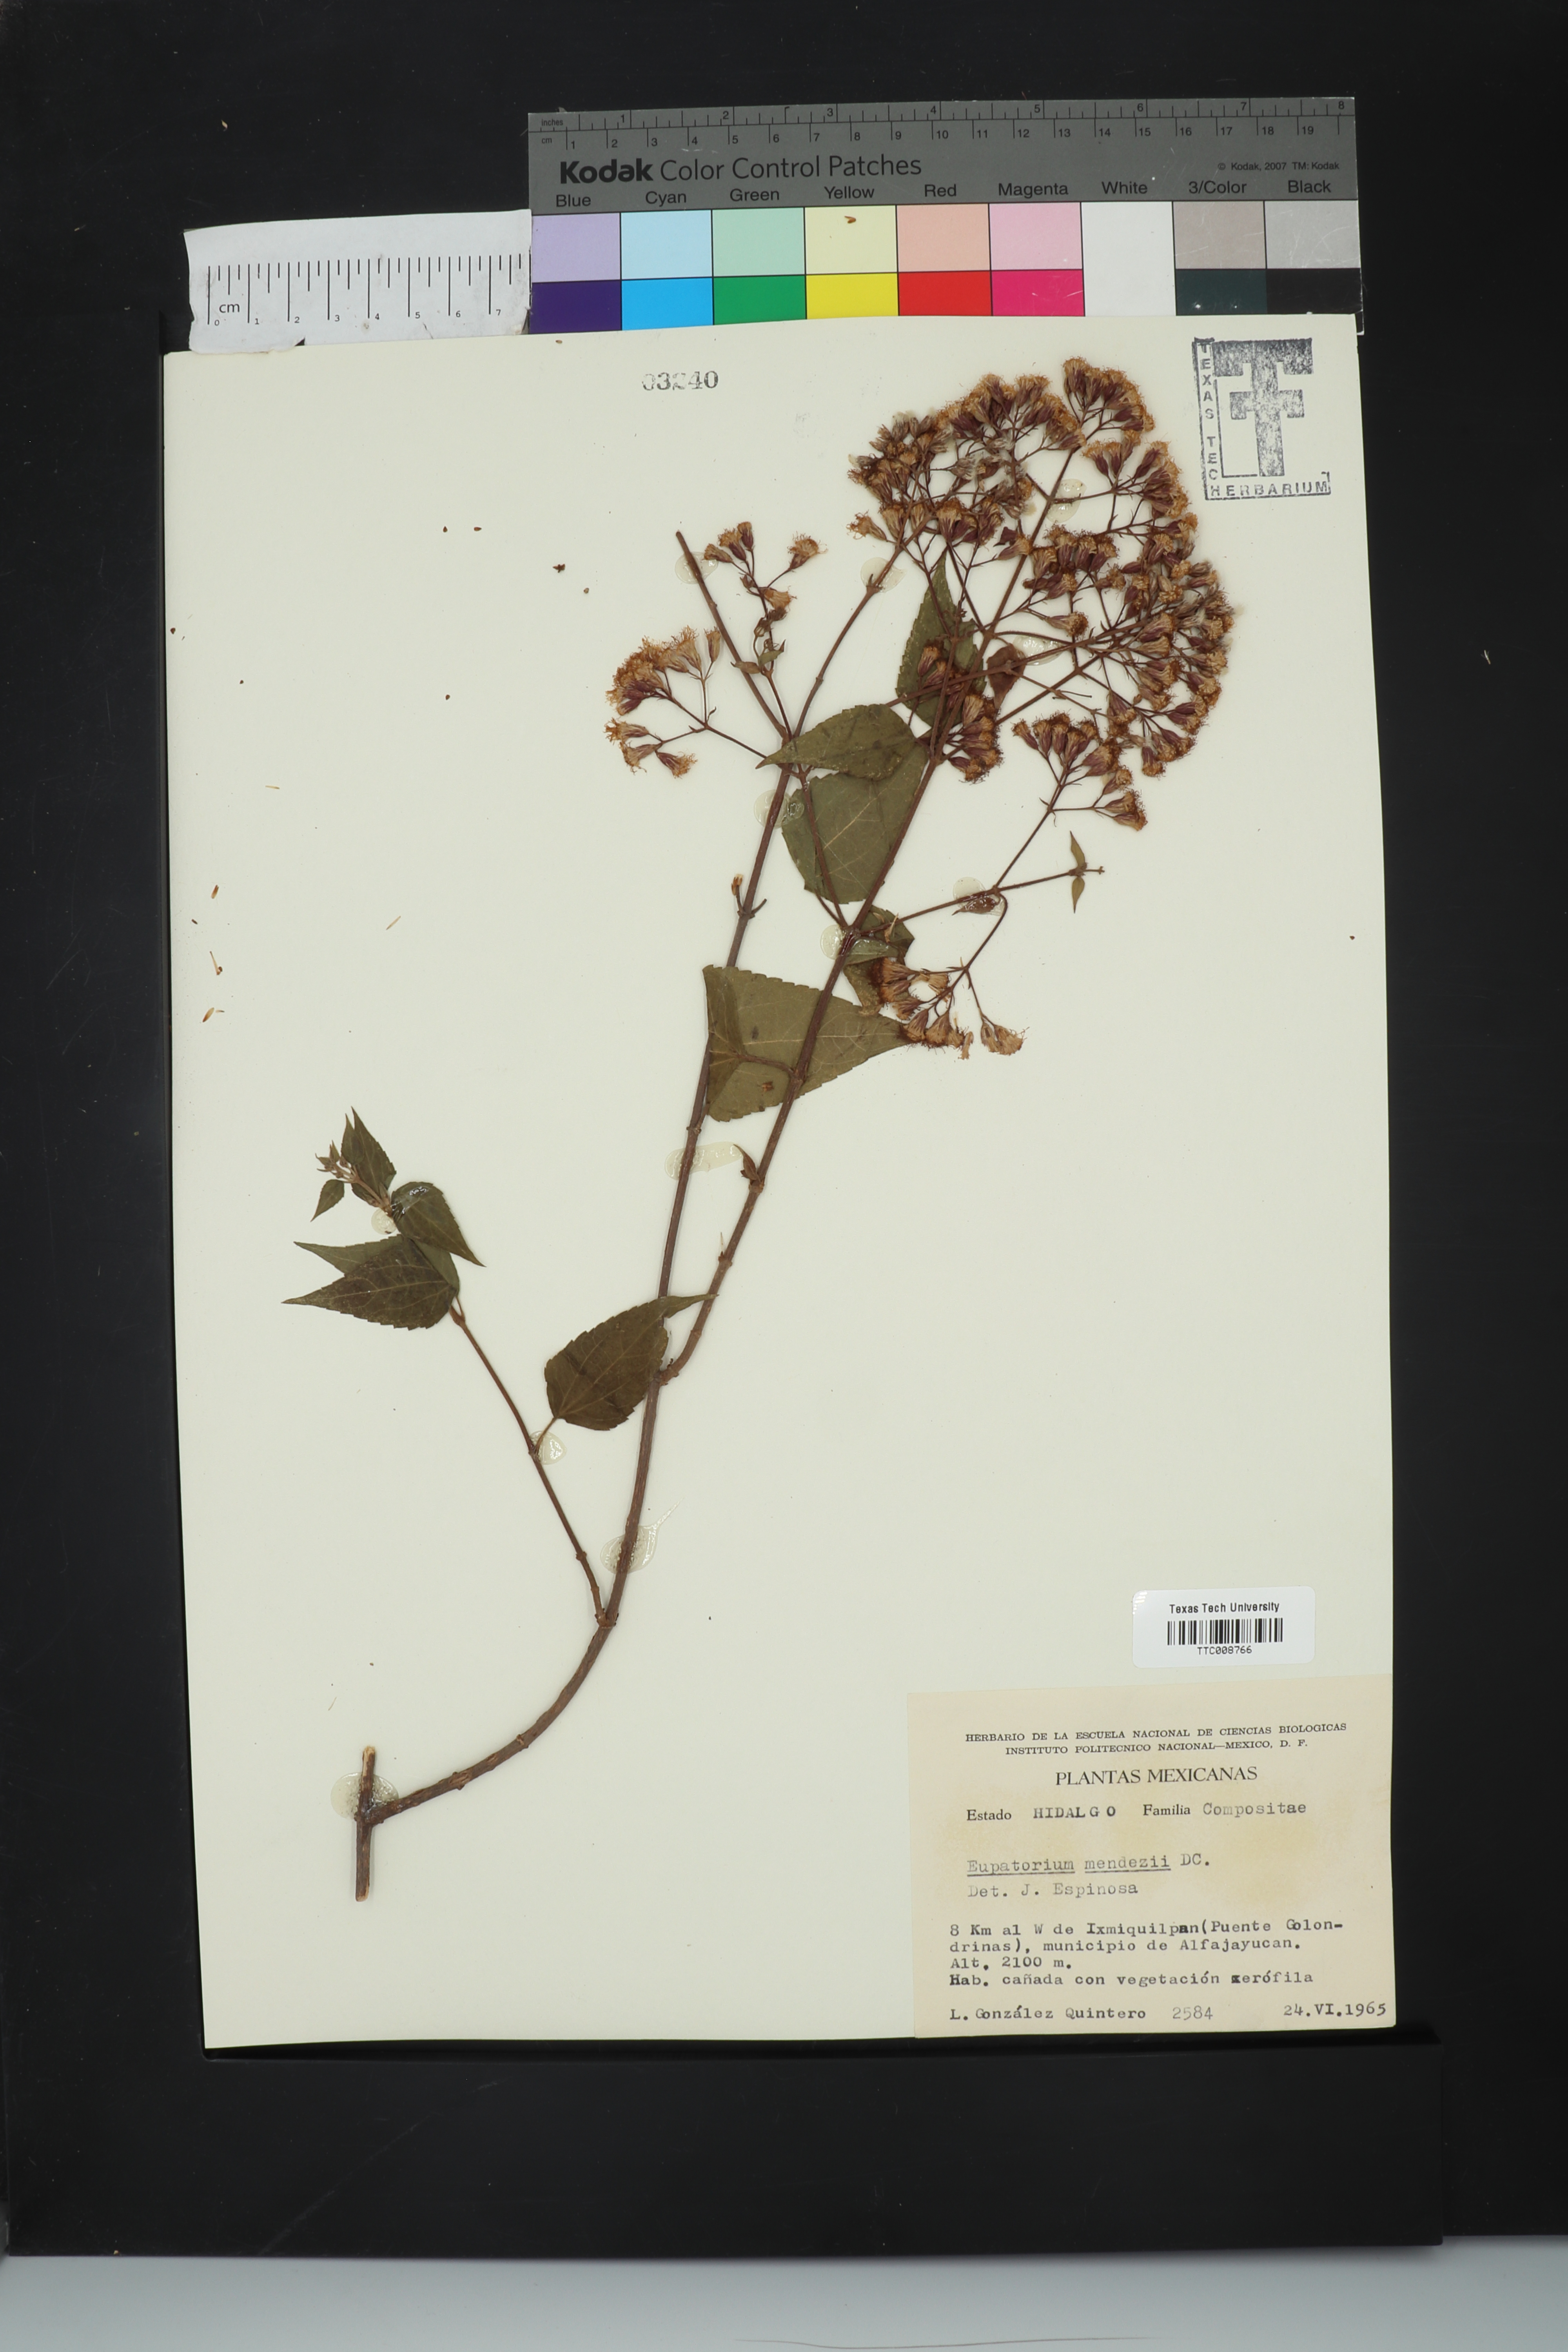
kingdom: Plantae
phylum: Tracheophyta
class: Magnoliopsida
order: Asterales
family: Asteraceae
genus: Chromolaena
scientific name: Chromolaena collina
